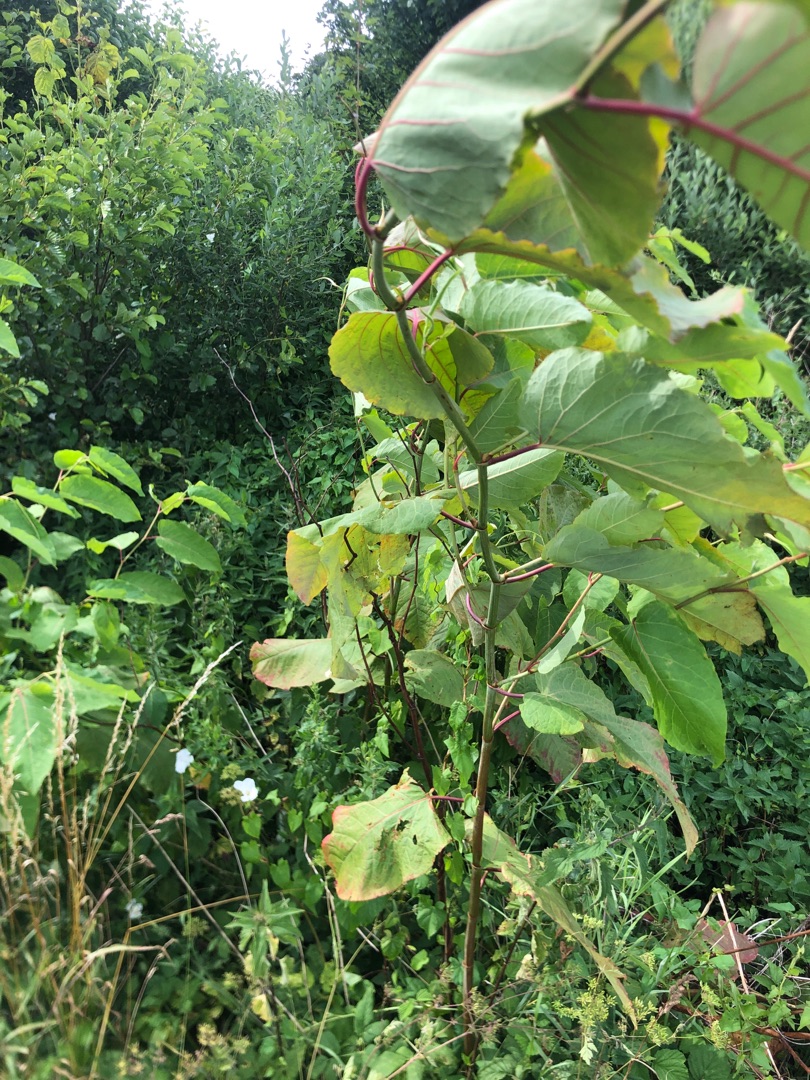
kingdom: Plantae
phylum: Tracheophyta
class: Magnoliopsida
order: Caryophyllales
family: Polygonaceae
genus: Reynoutria
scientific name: Reynoutria sachalinensis
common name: Kæmpe-pileurt
